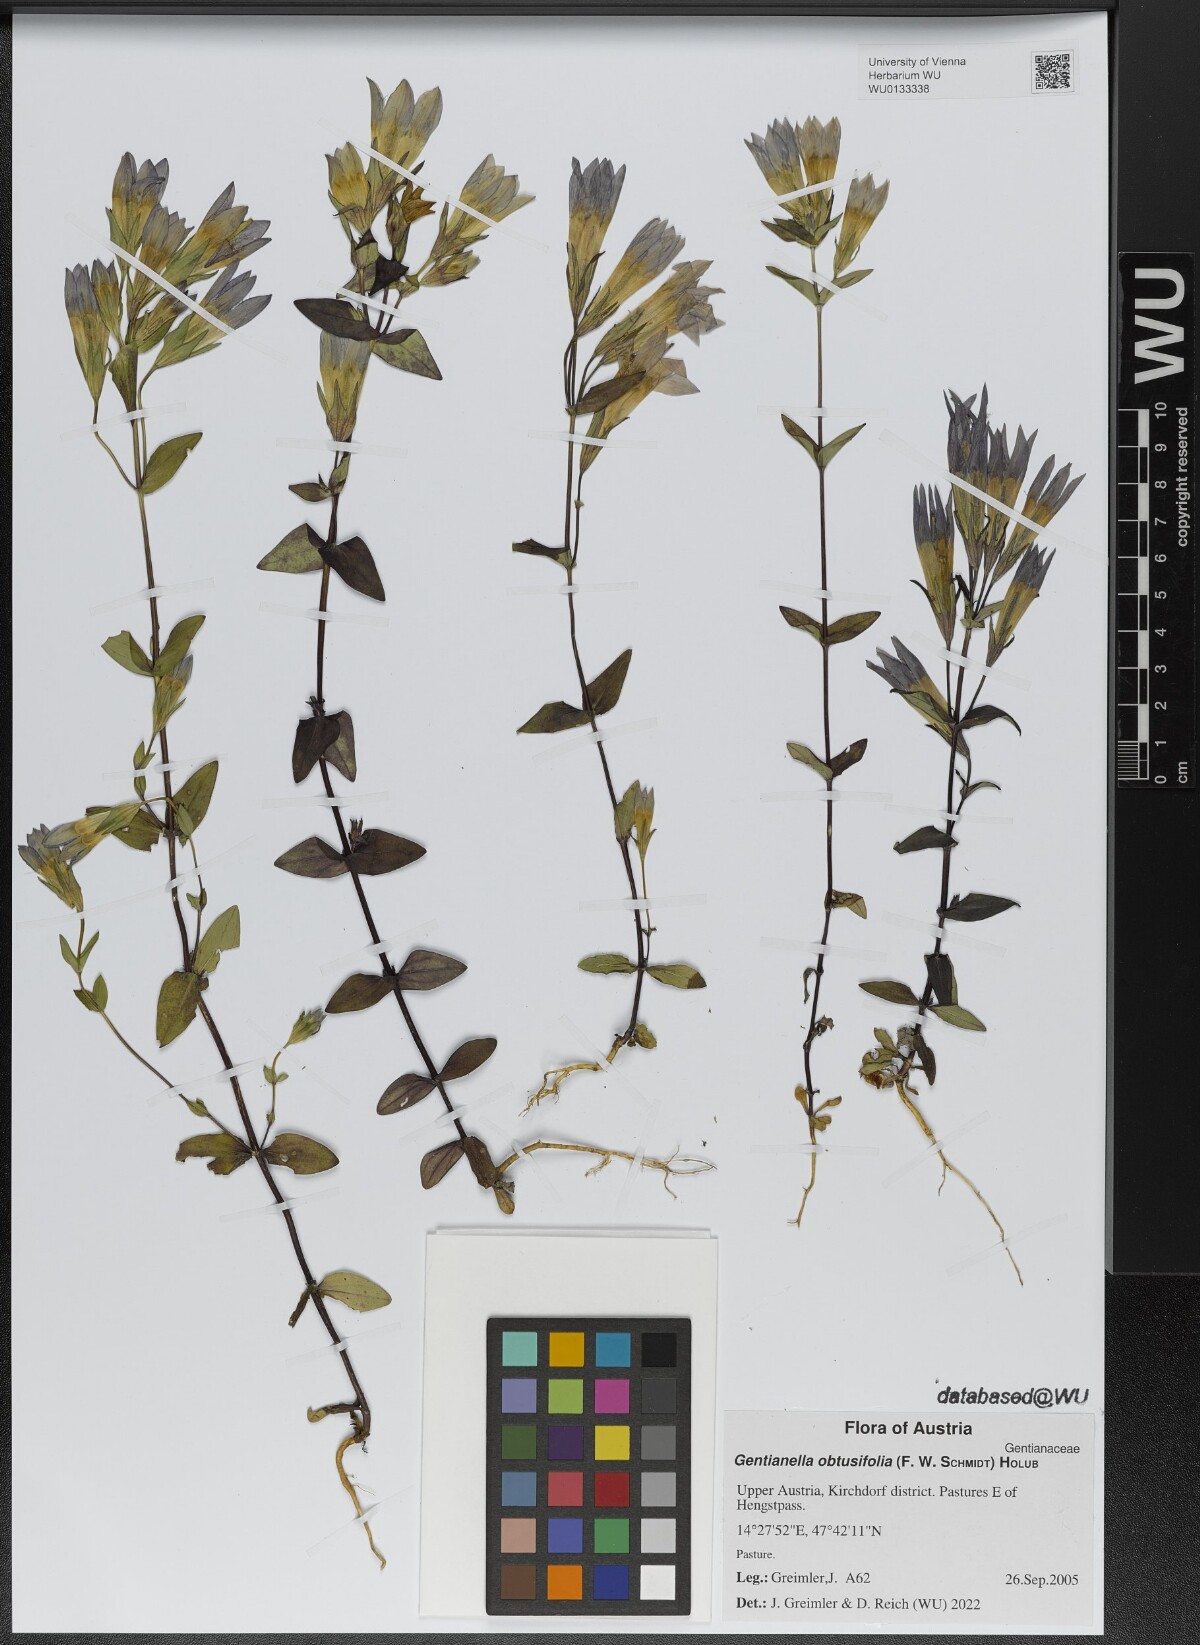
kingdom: Plantae
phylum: Tracheophyta
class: Magnoliopsida
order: Gentianales
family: Gentianaceae
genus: Gentianella
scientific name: Gentianella obtusifolia
